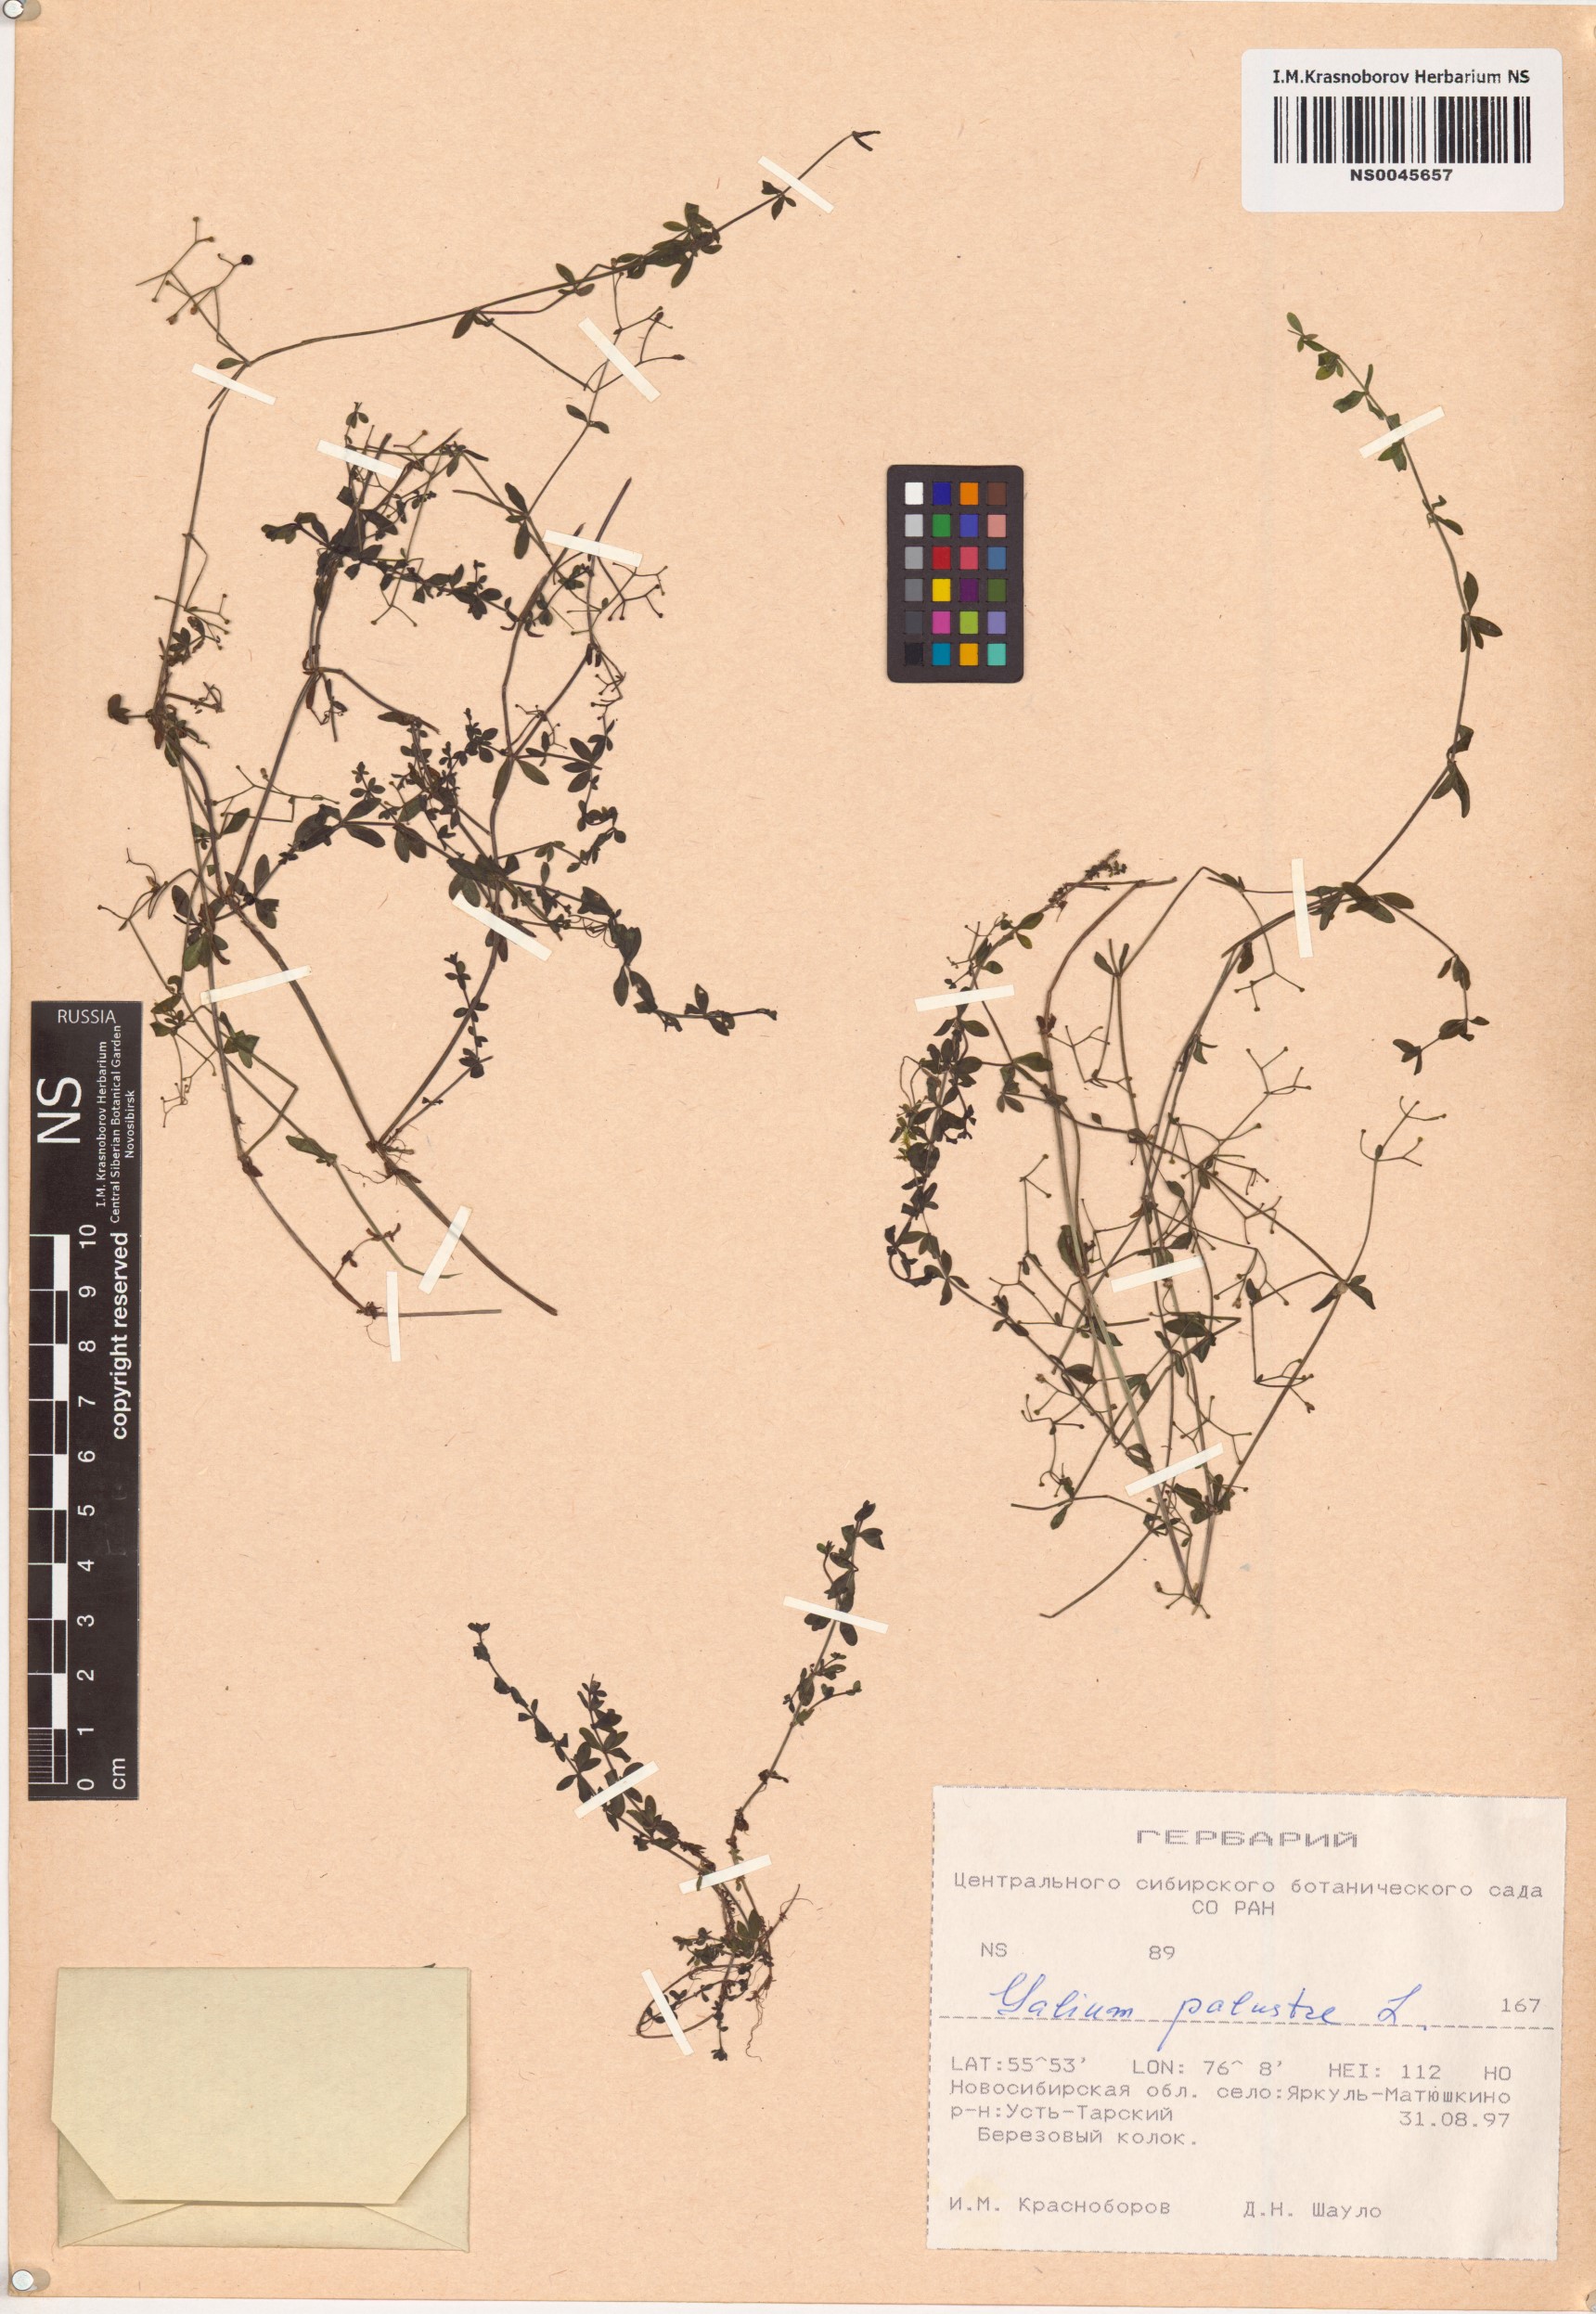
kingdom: Plantae
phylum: Tracheophyta
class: Magnoliopsida
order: Gentianales
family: Rubiaceae
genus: Galium
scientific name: Galium palustre
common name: Common marsh-bedstraw
